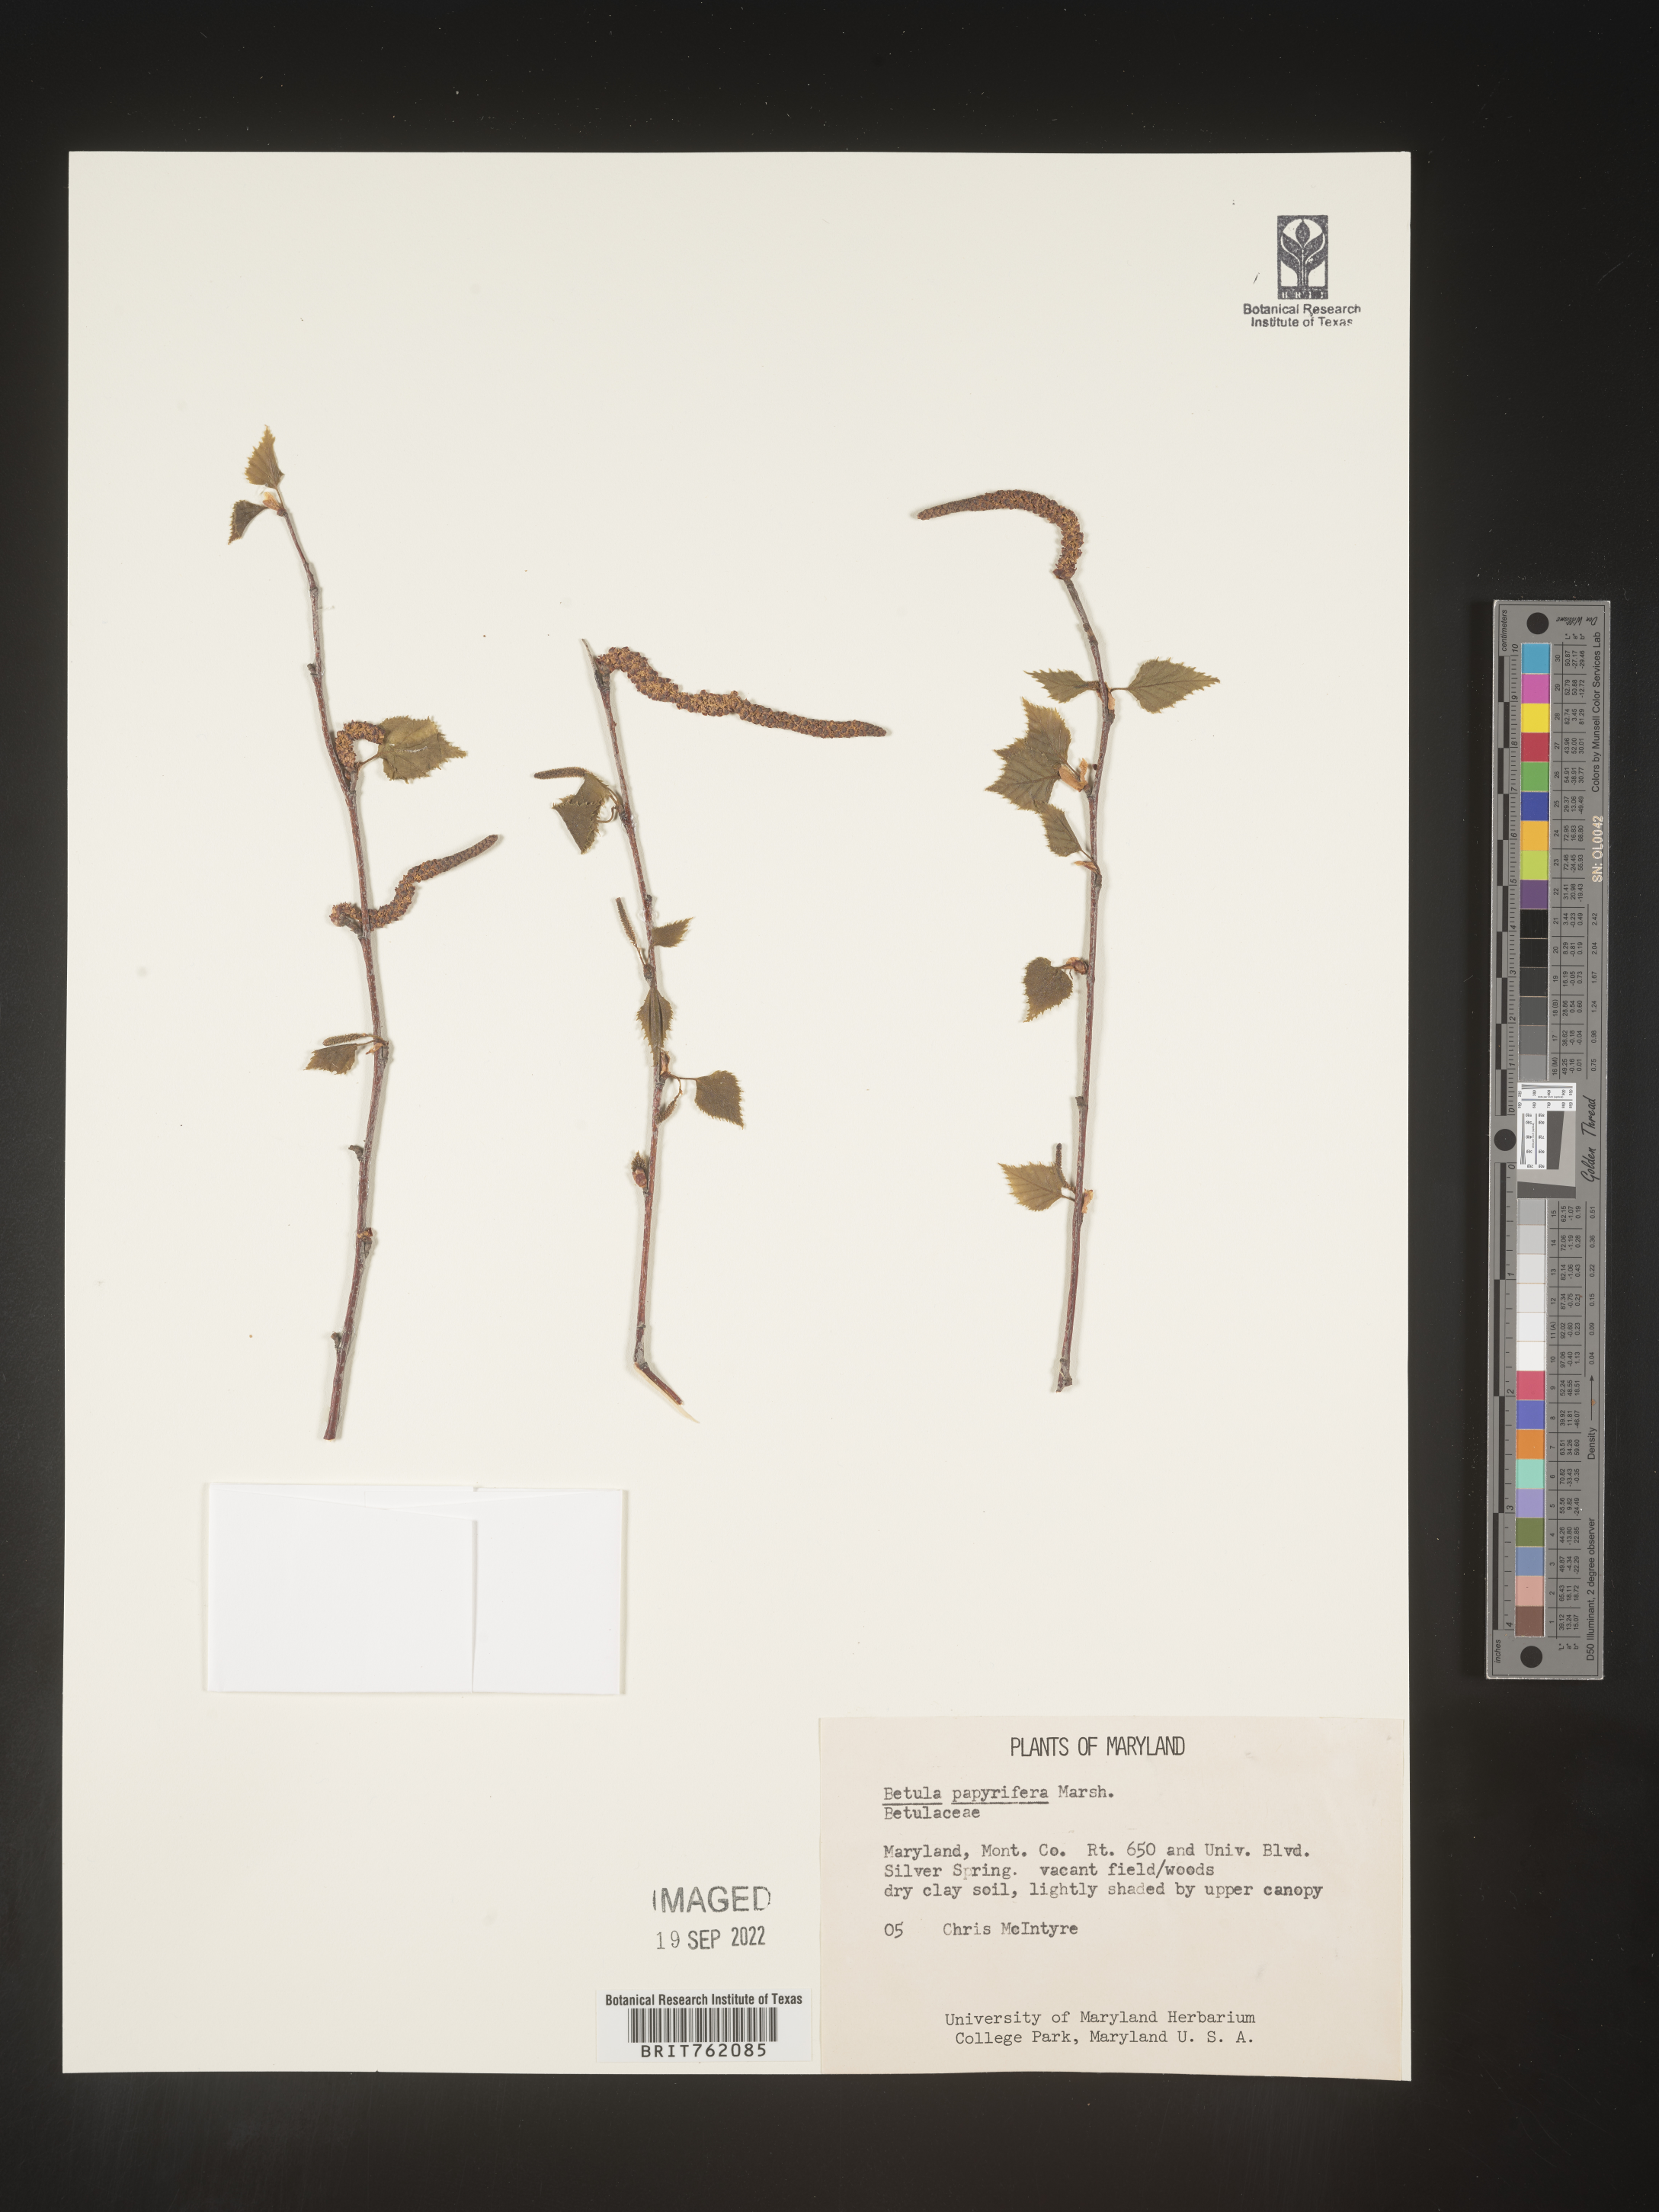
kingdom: Plantae
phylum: Tracheophyta
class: Magnoliopsida
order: Fagales
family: Betulaceae
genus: Betula
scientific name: Betula papyrifera
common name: Paper birch
